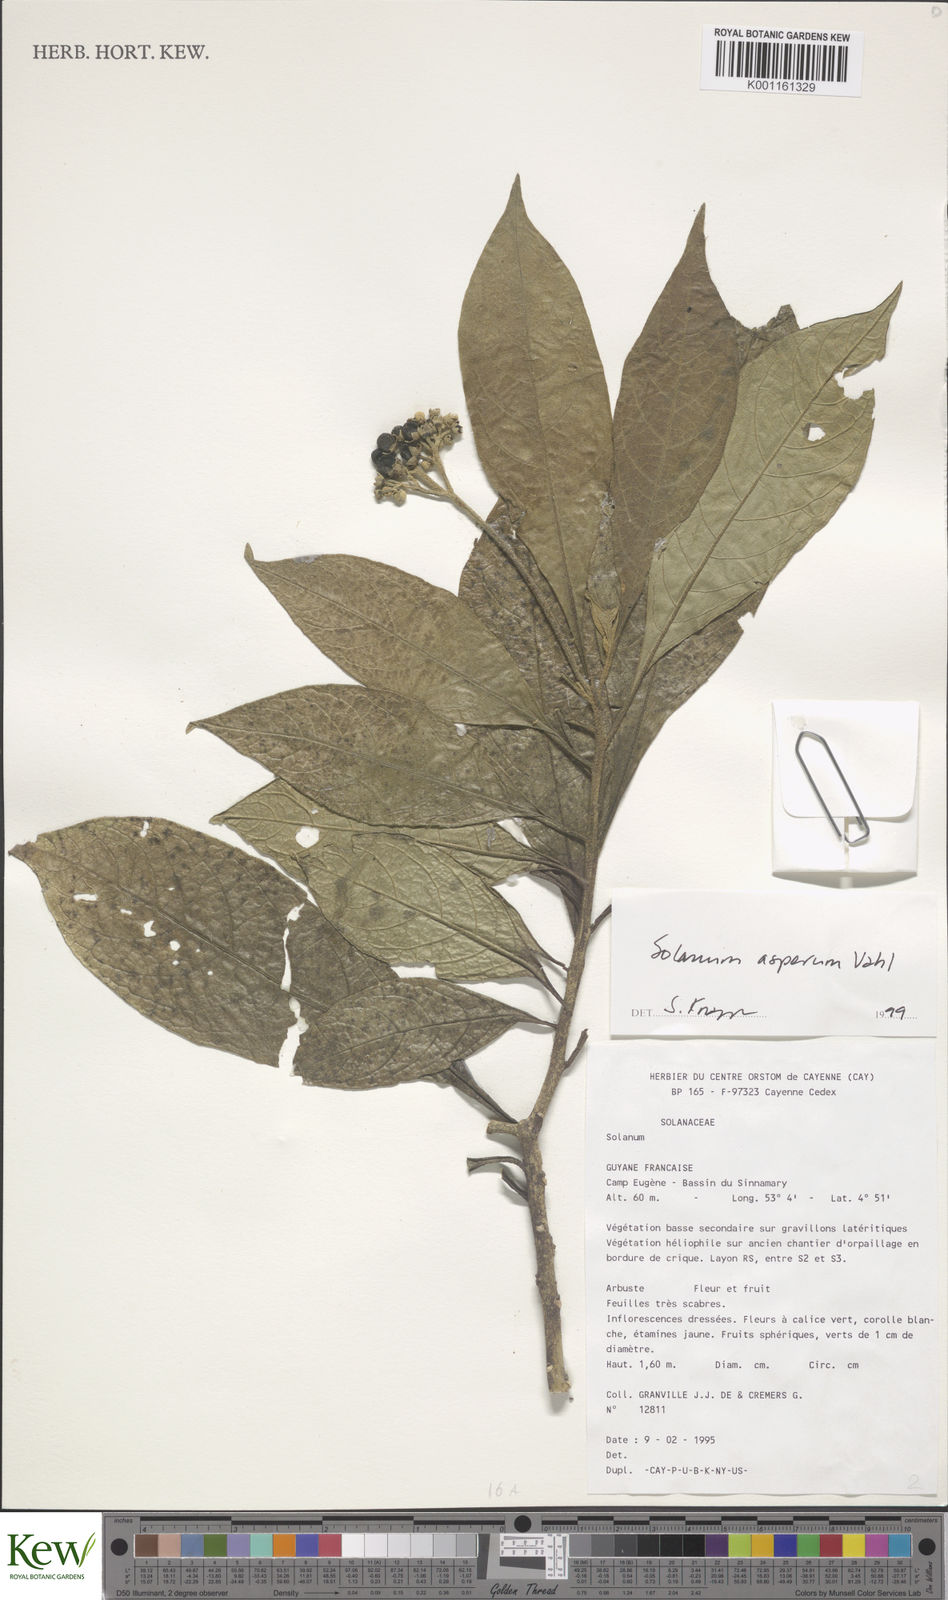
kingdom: Plantae
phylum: Tracheophyta
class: Magnoliopsida
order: Solanales
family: Solanaceae
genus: Solanum
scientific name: Solanum asperum
